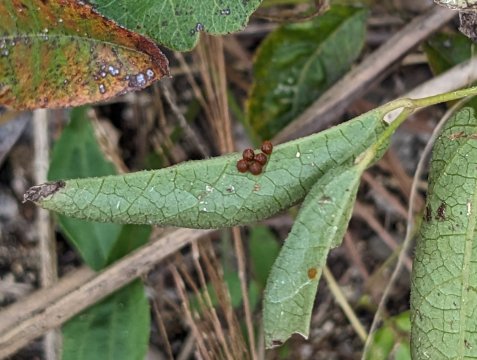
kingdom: Animalia
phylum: Arthropoda
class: Insecta
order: Lepidoptera
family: Papilionidae
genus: Battus
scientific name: Battus philenor
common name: Pipevine Swallowtail
